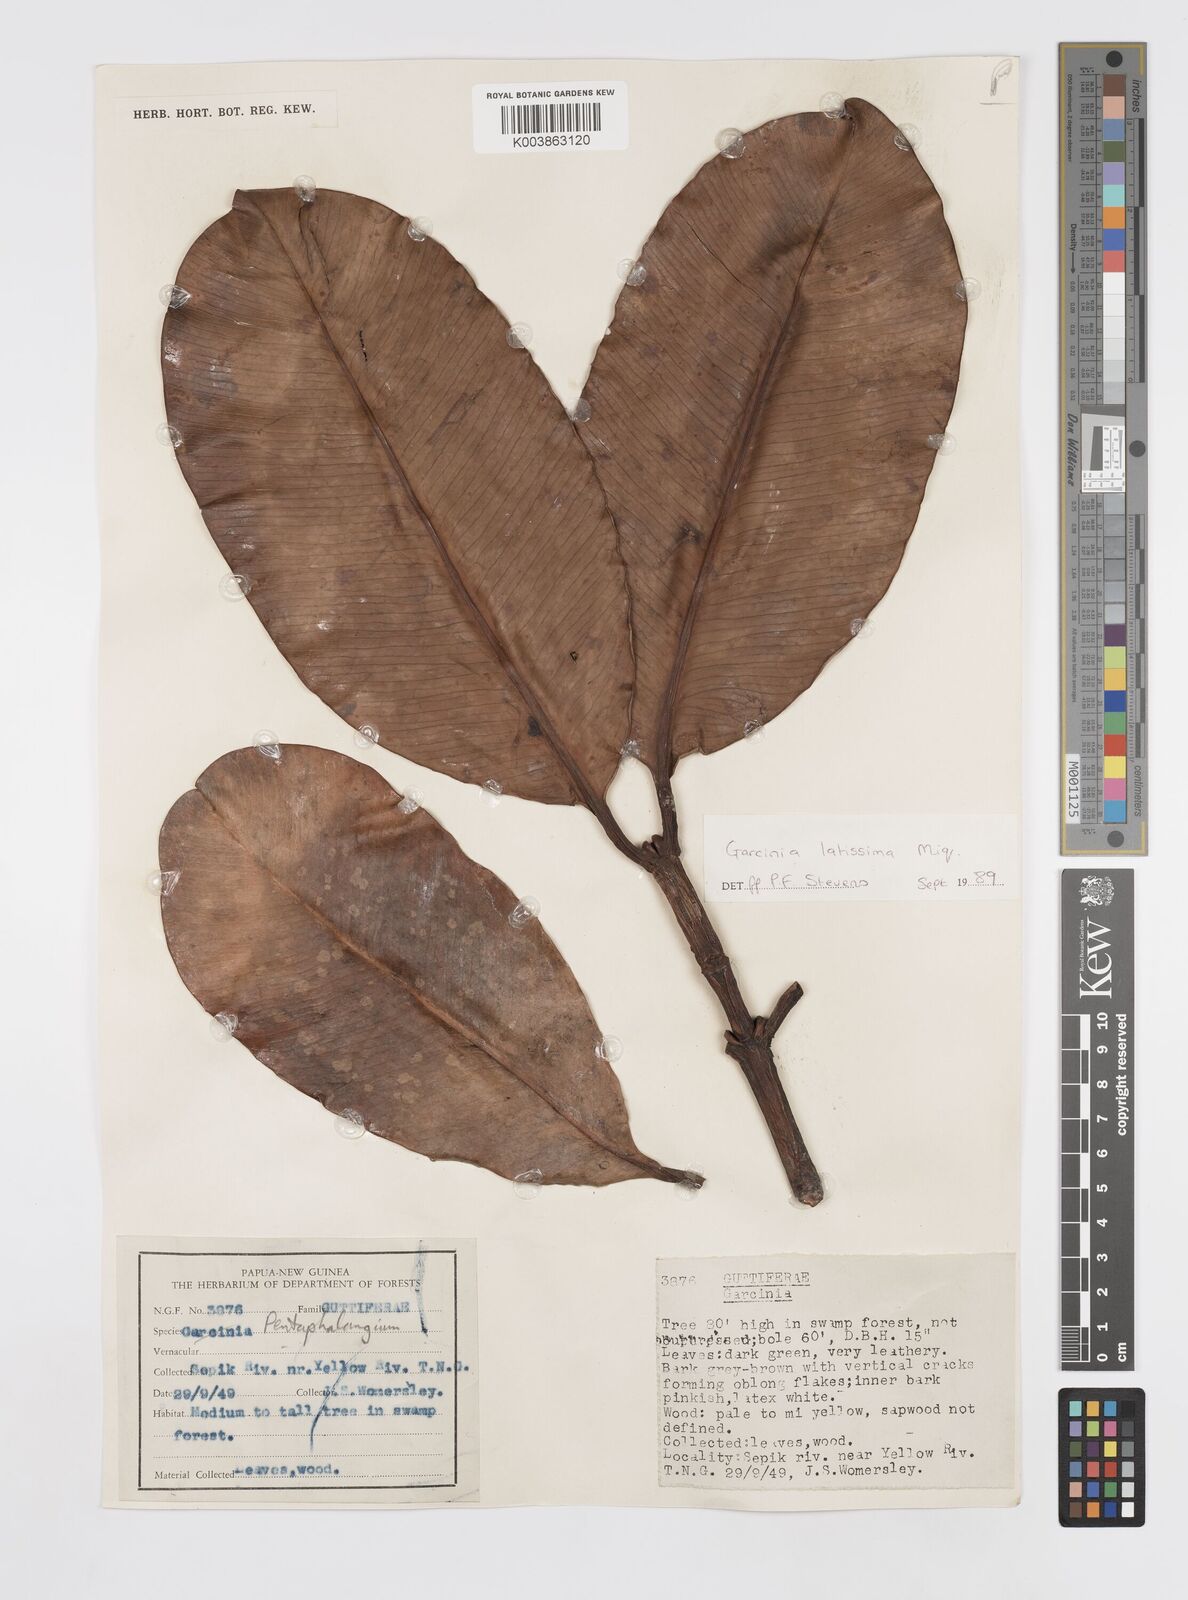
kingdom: Plantae
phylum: Tracheophyta
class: Magnoliopsida
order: Malpighiales
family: Clusiaceae
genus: Garcinia
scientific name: Garcinia latissima
